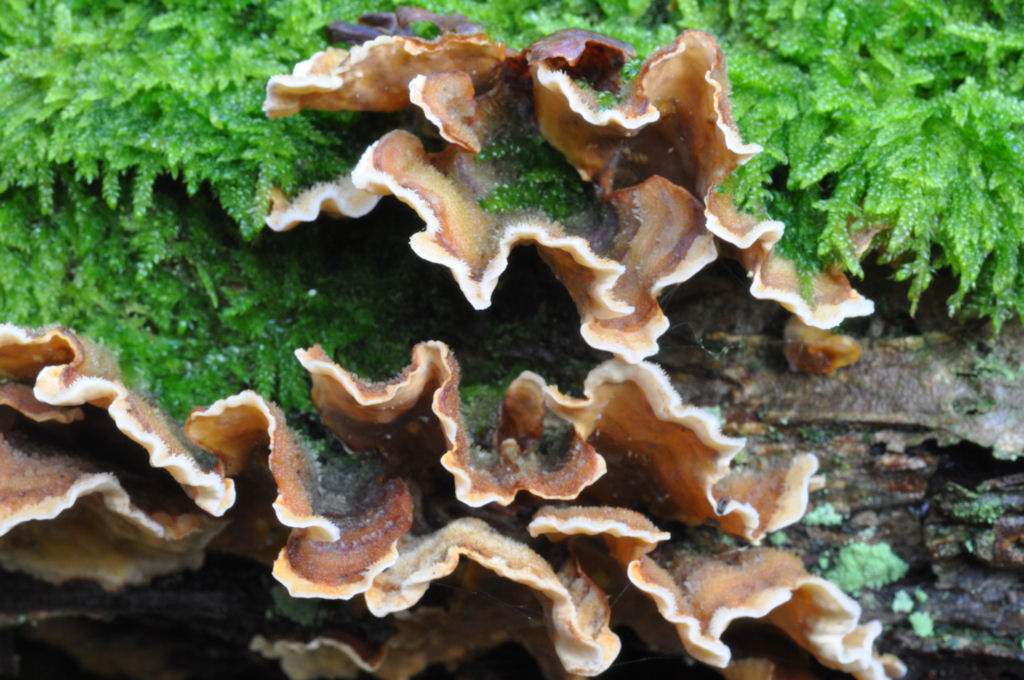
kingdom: Fungi
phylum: Basidiomycota
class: Agaricomycetes
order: Russulales
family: Stereaceae
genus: Stereum
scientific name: Stereum hirsutum
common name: håret lædersvamp
